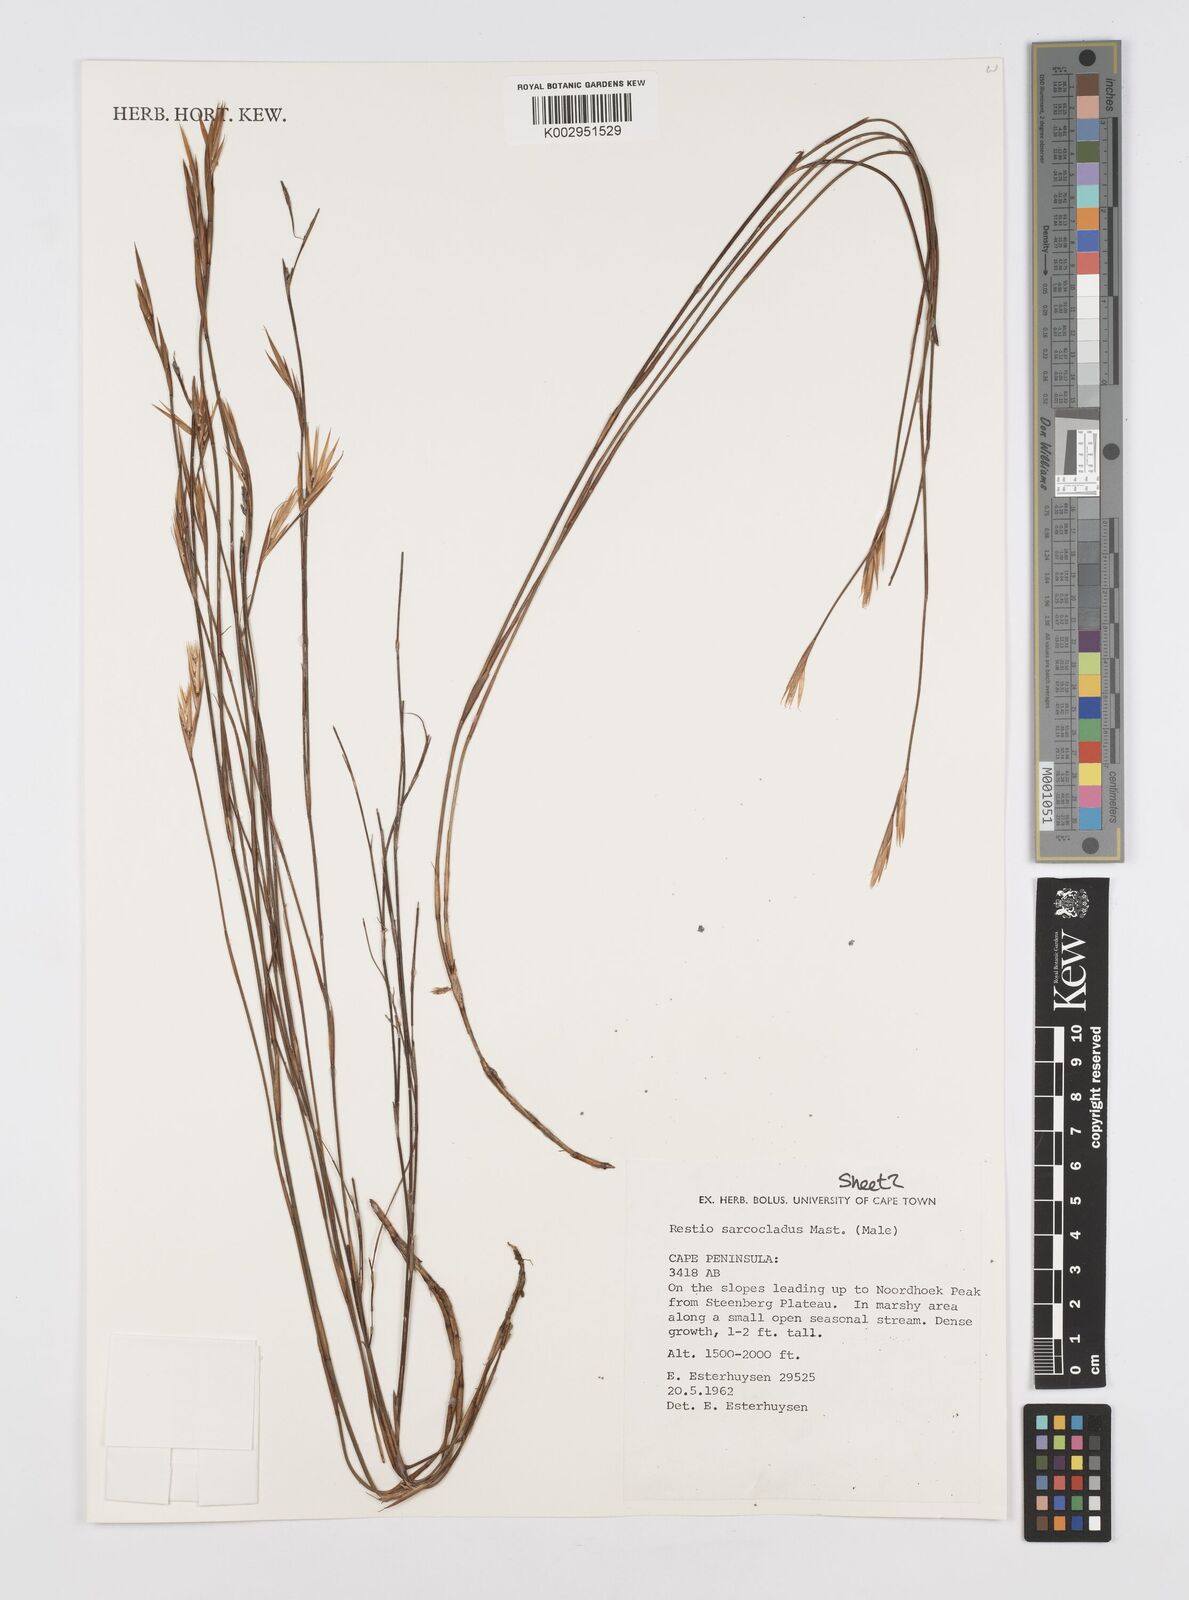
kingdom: Plantae
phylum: Tracheophyta
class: Liliopsida
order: Poales
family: Restionaceae
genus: Restio
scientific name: Restio saroclados
